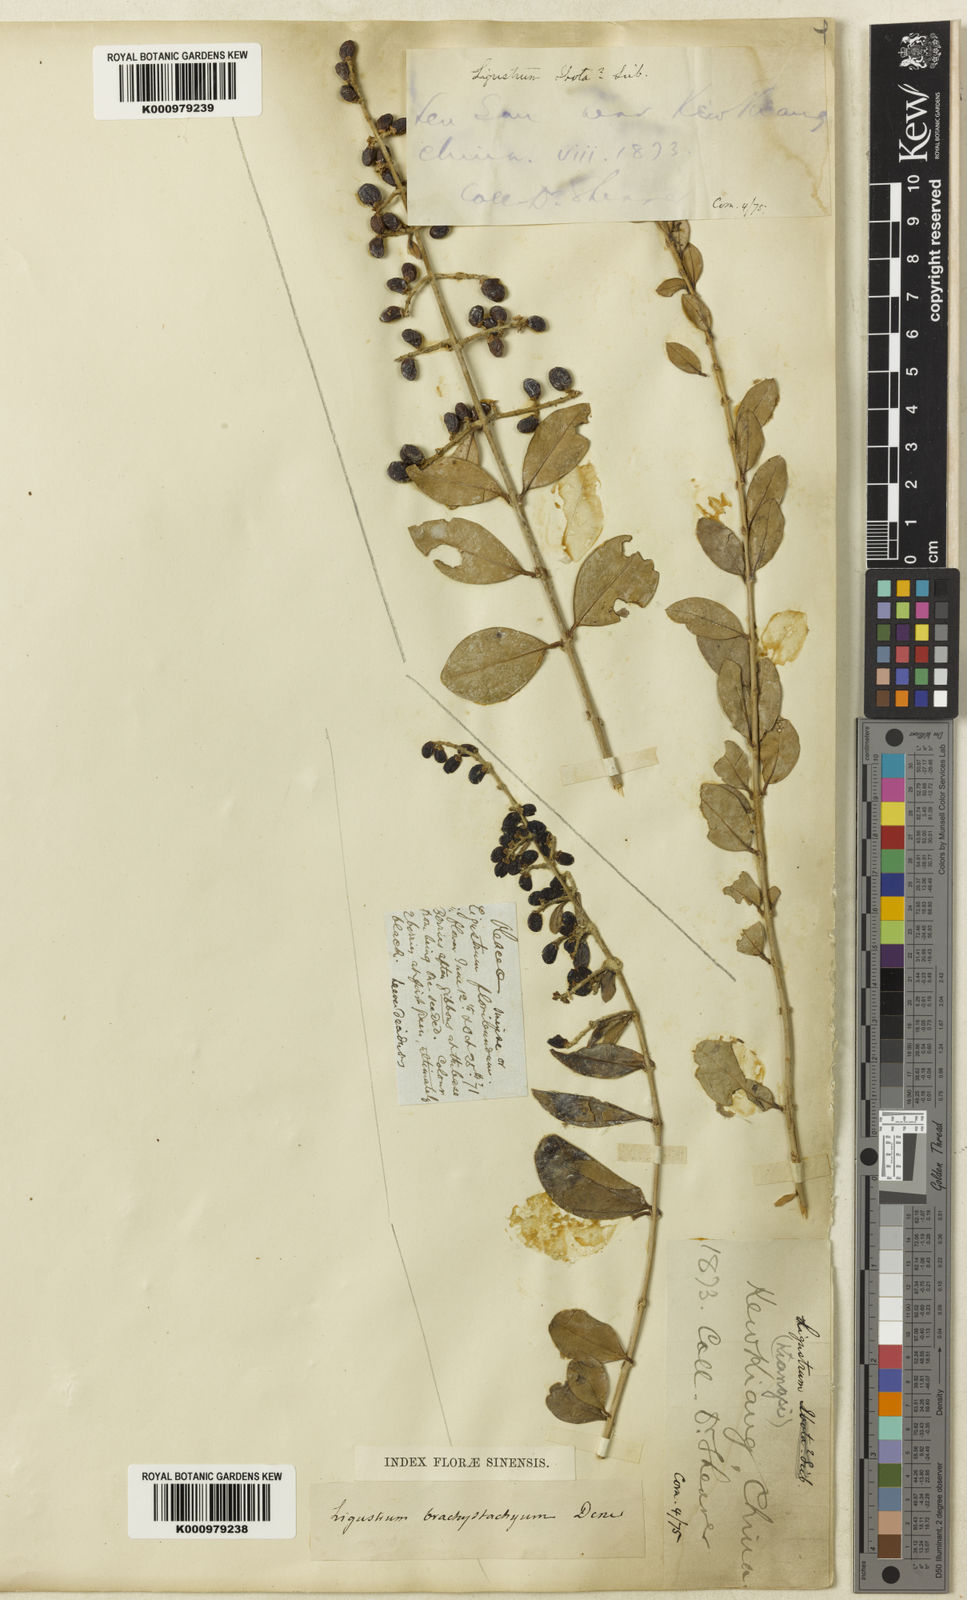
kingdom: Plantae
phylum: Tracheophyta
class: Magnoliopsida
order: Lamiales
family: Oleaceae
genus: Ligustrum
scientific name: Ligustrum
